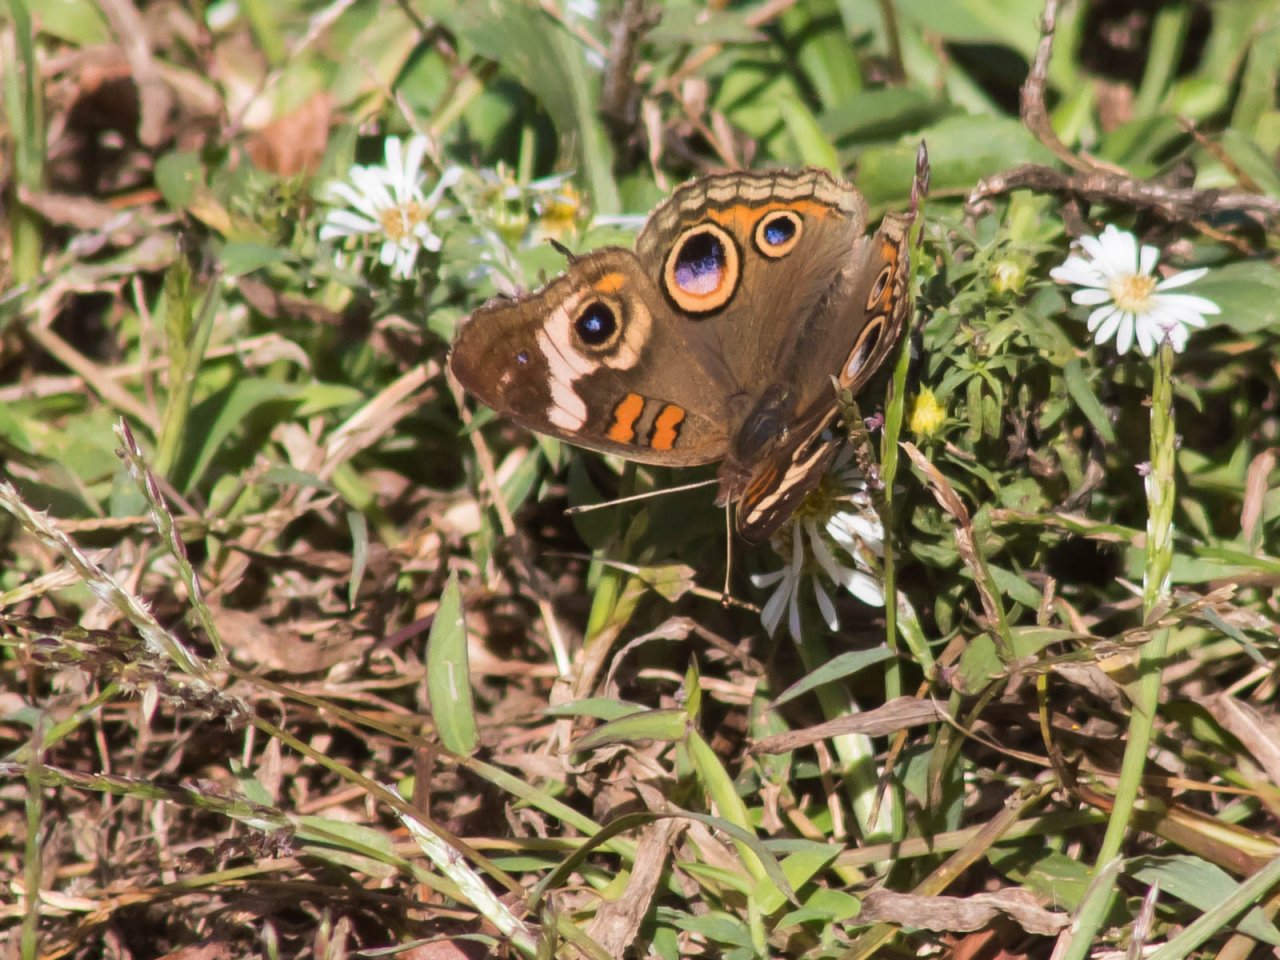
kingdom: Animalia
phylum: Arthropoda
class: Insecta
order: Lepidoptera
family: Nymphalidae
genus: Junonia
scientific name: Junonia coenia
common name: Common Buckeye
